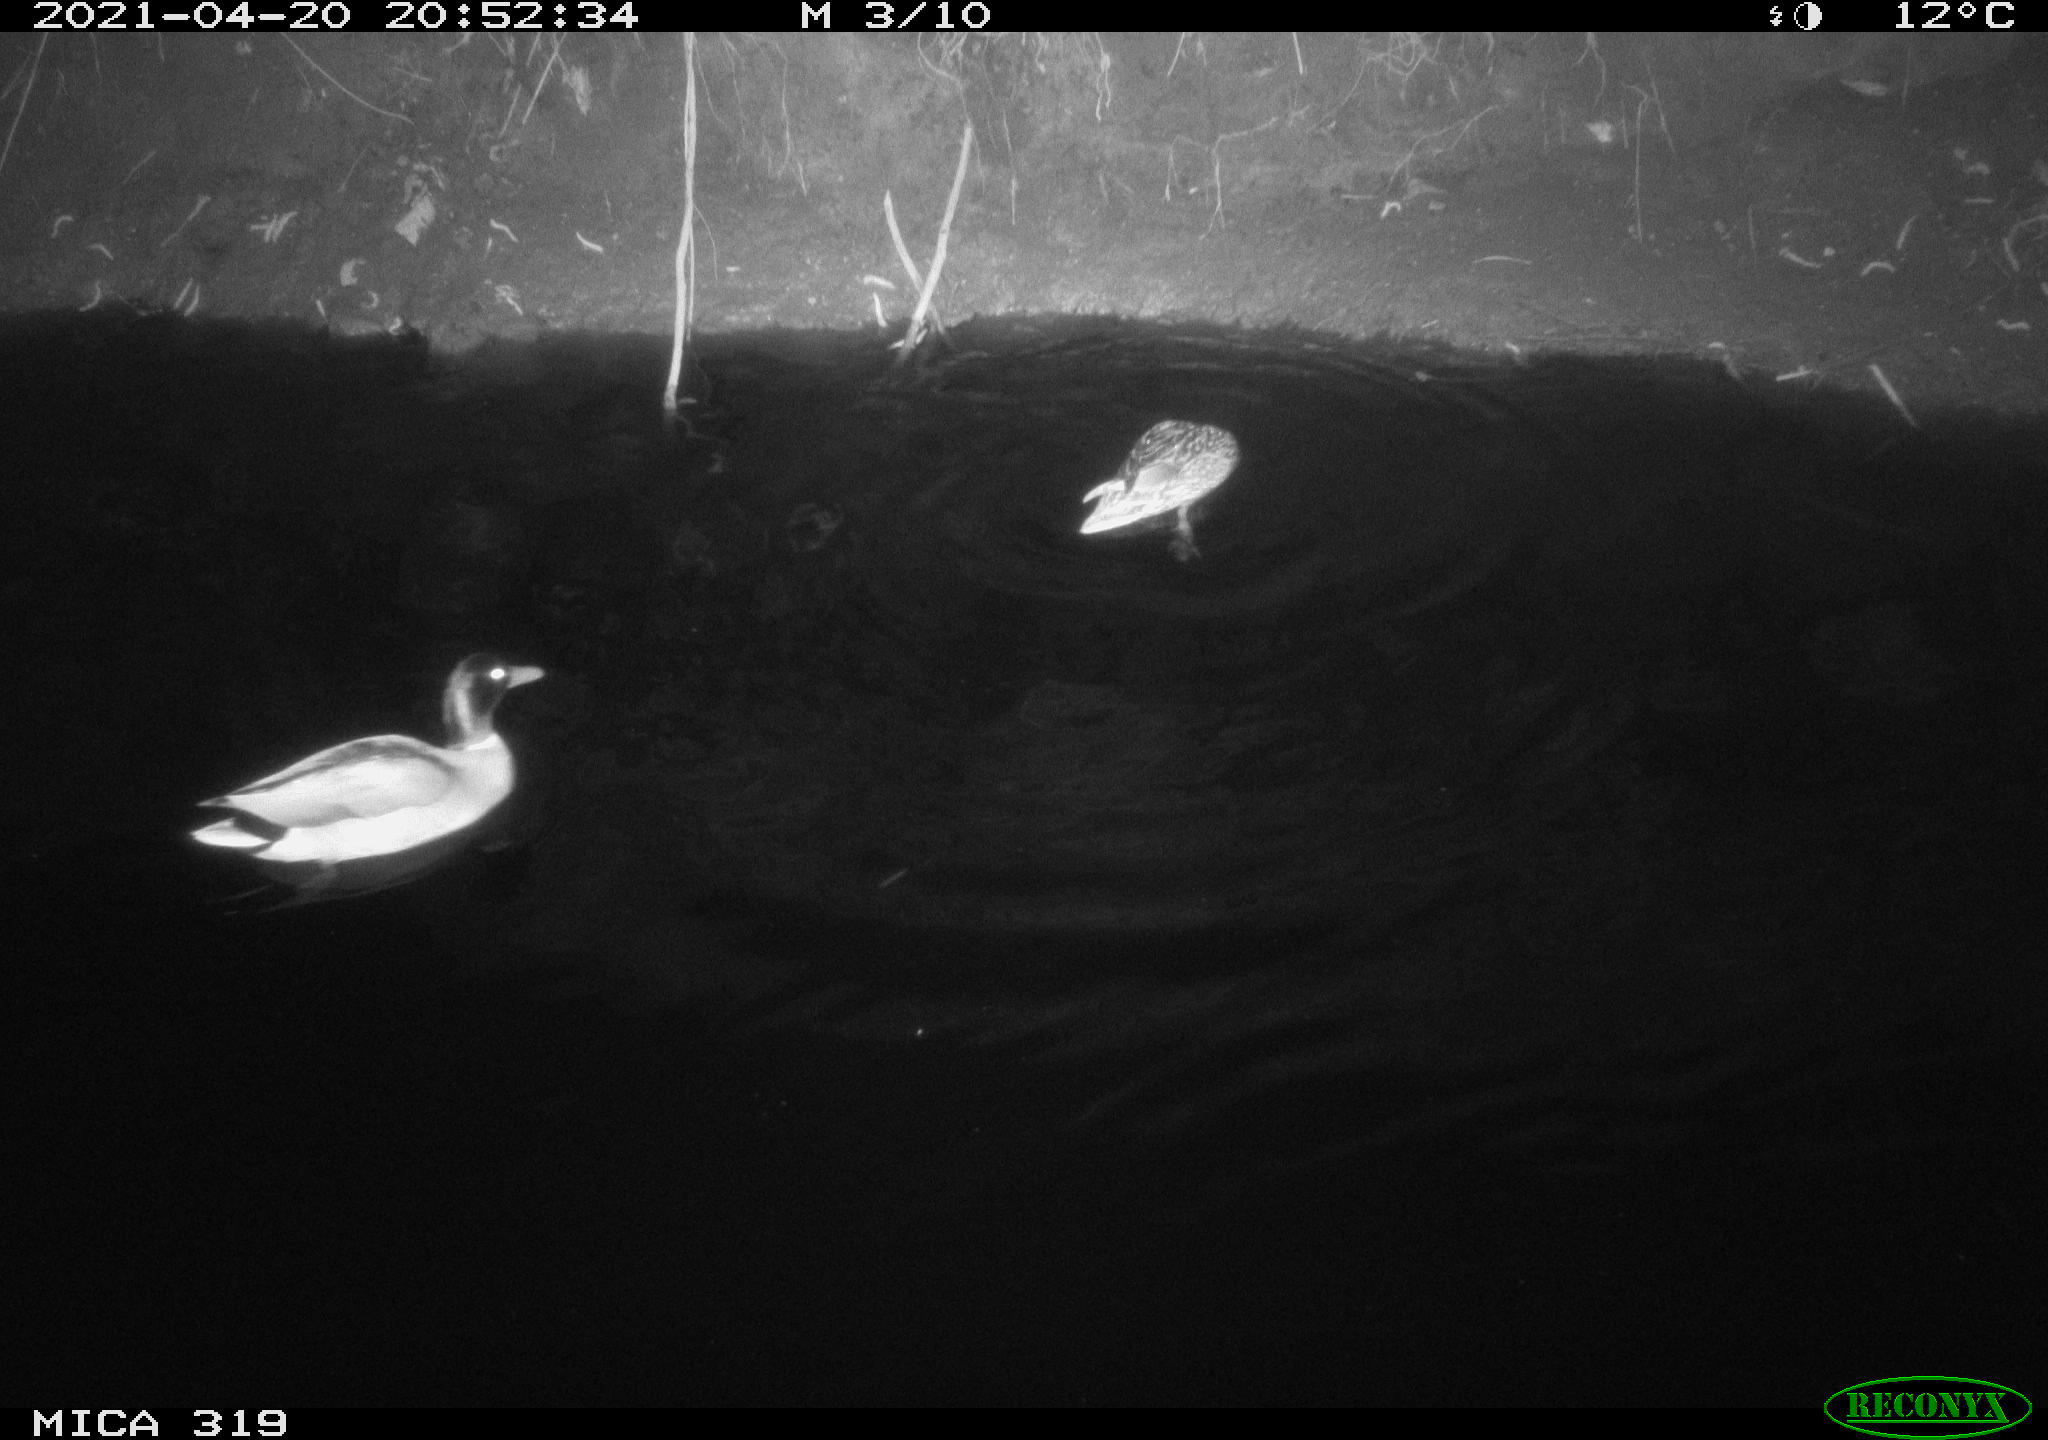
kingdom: Animalia
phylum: Chordata
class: Aves
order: Anseriformes
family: Anatidae
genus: Anas
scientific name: Anas platyrhynchos
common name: Mallard
